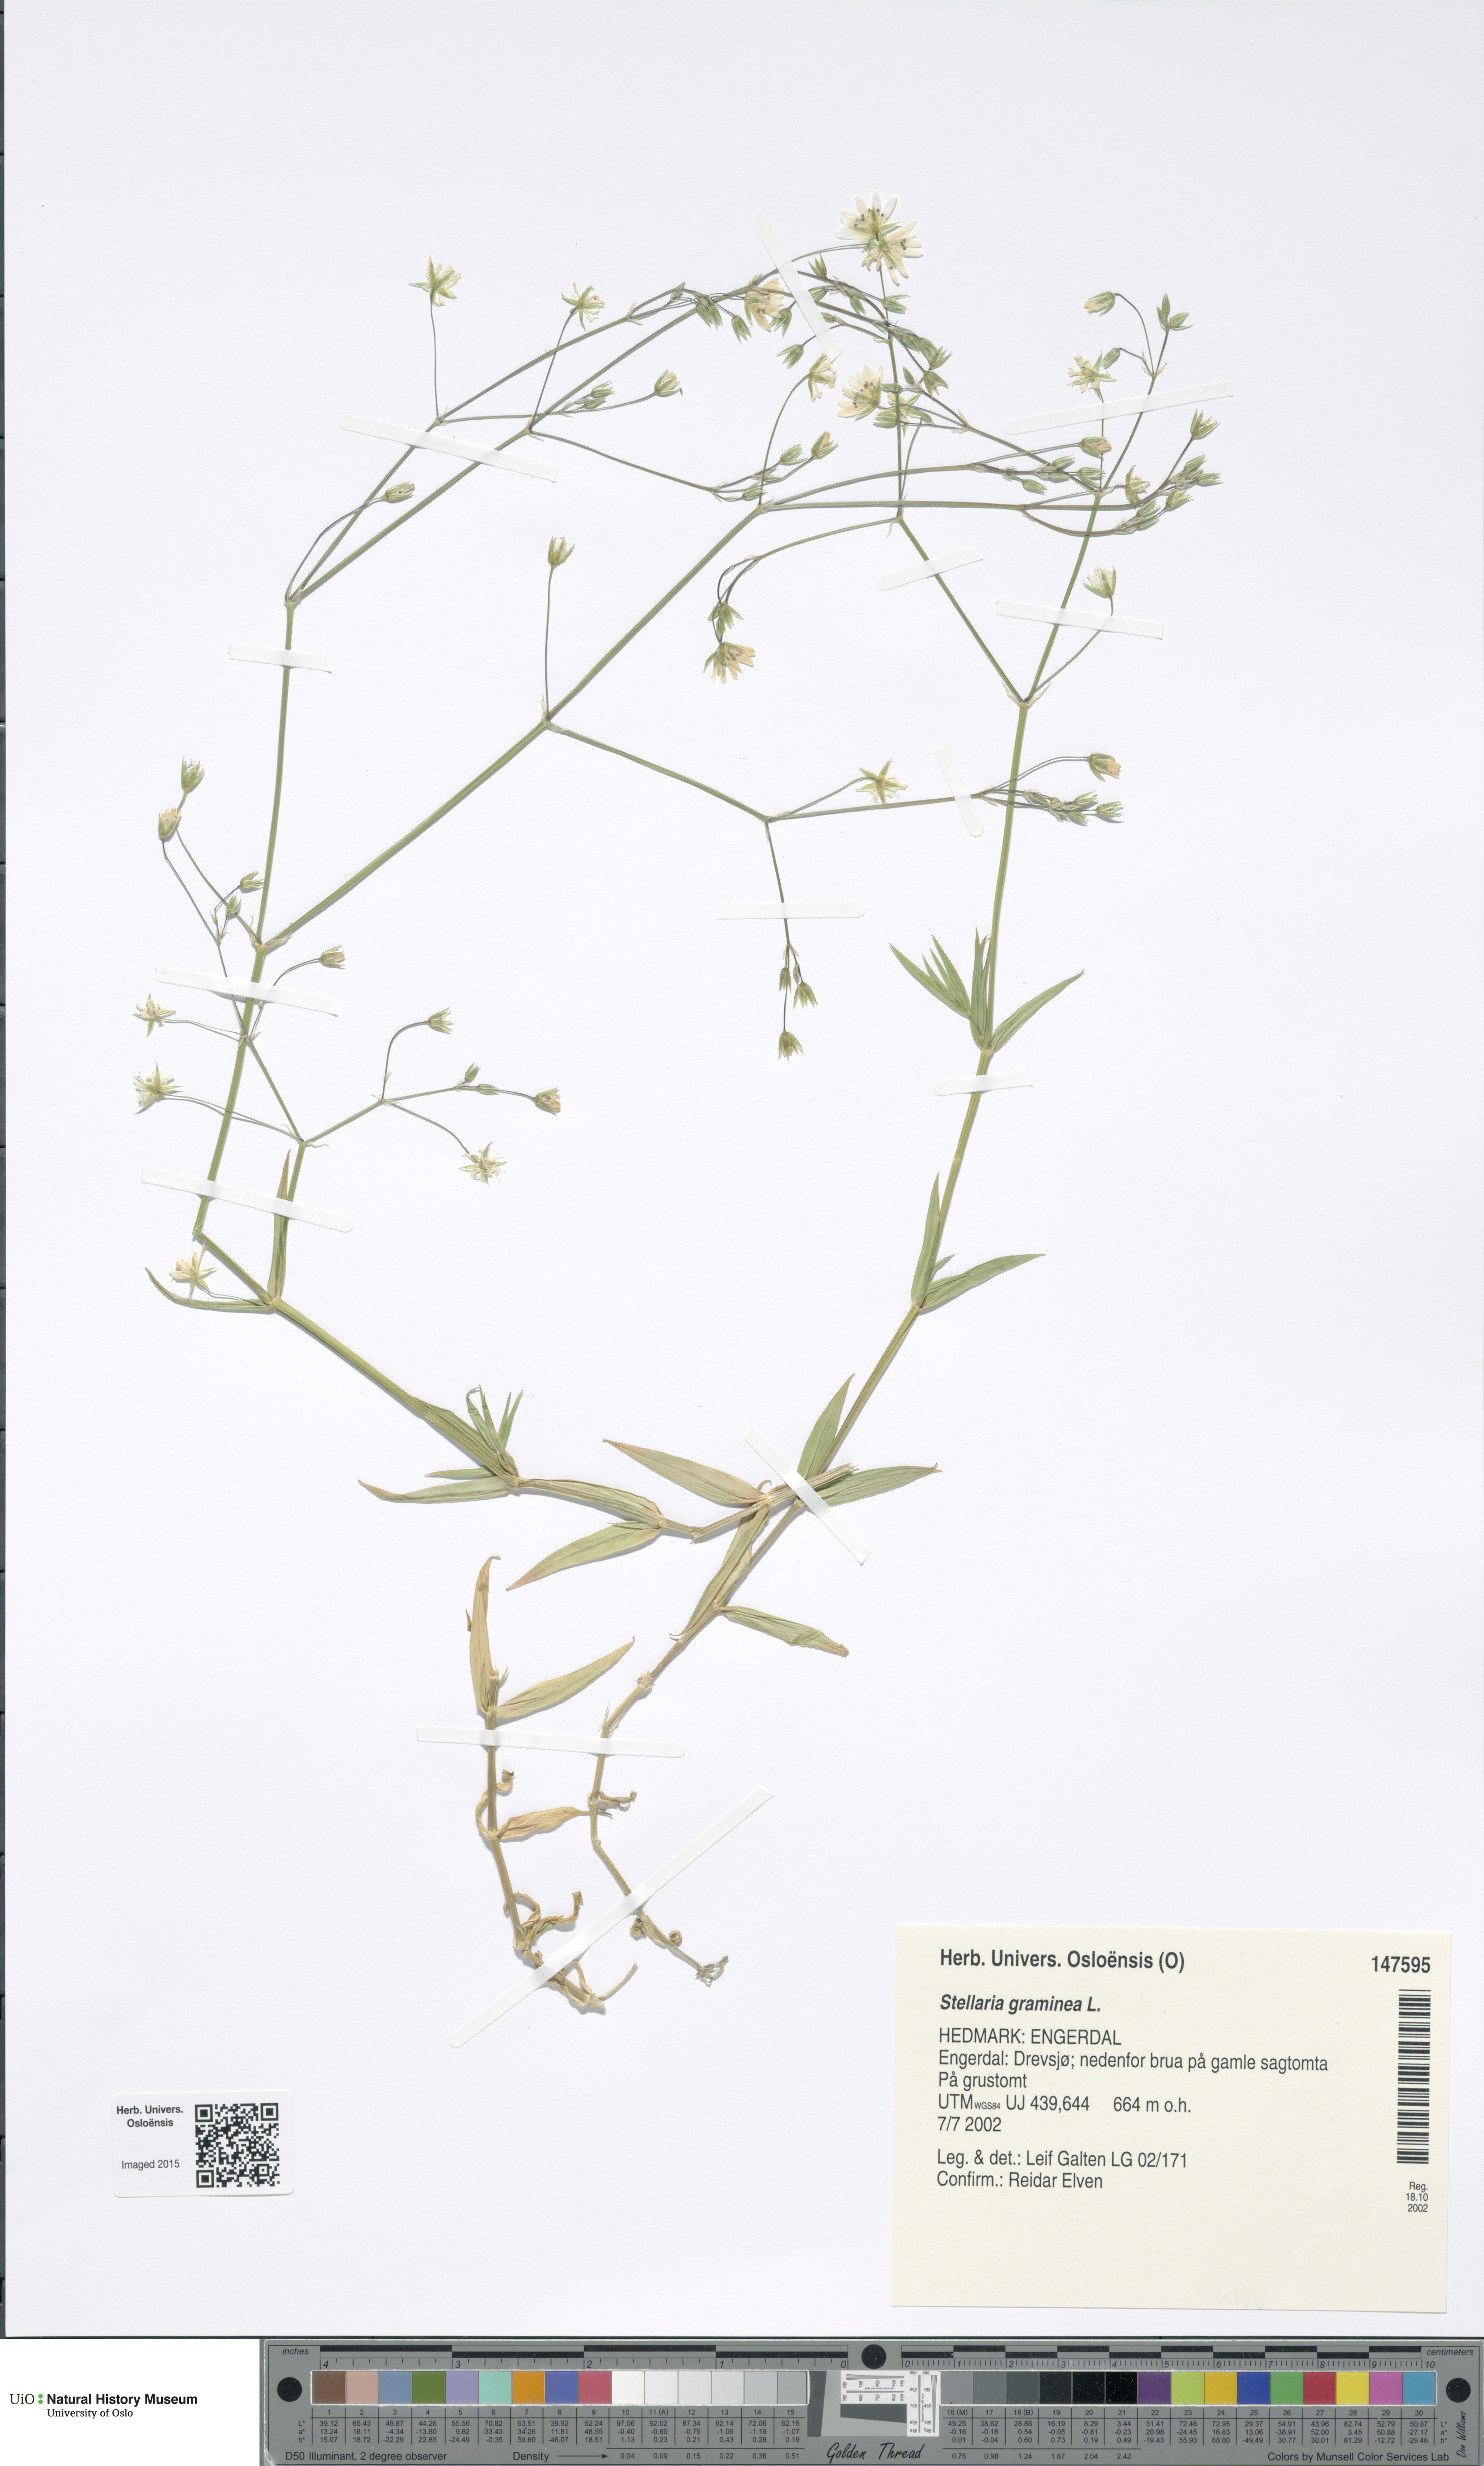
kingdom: Plantae
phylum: Tracheophyta
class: Magnoliopsida
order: Caryophyllales
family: Caryophyllaceae
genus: Stellaria
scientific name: Stellaria graminea
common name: Grass-like starwort
